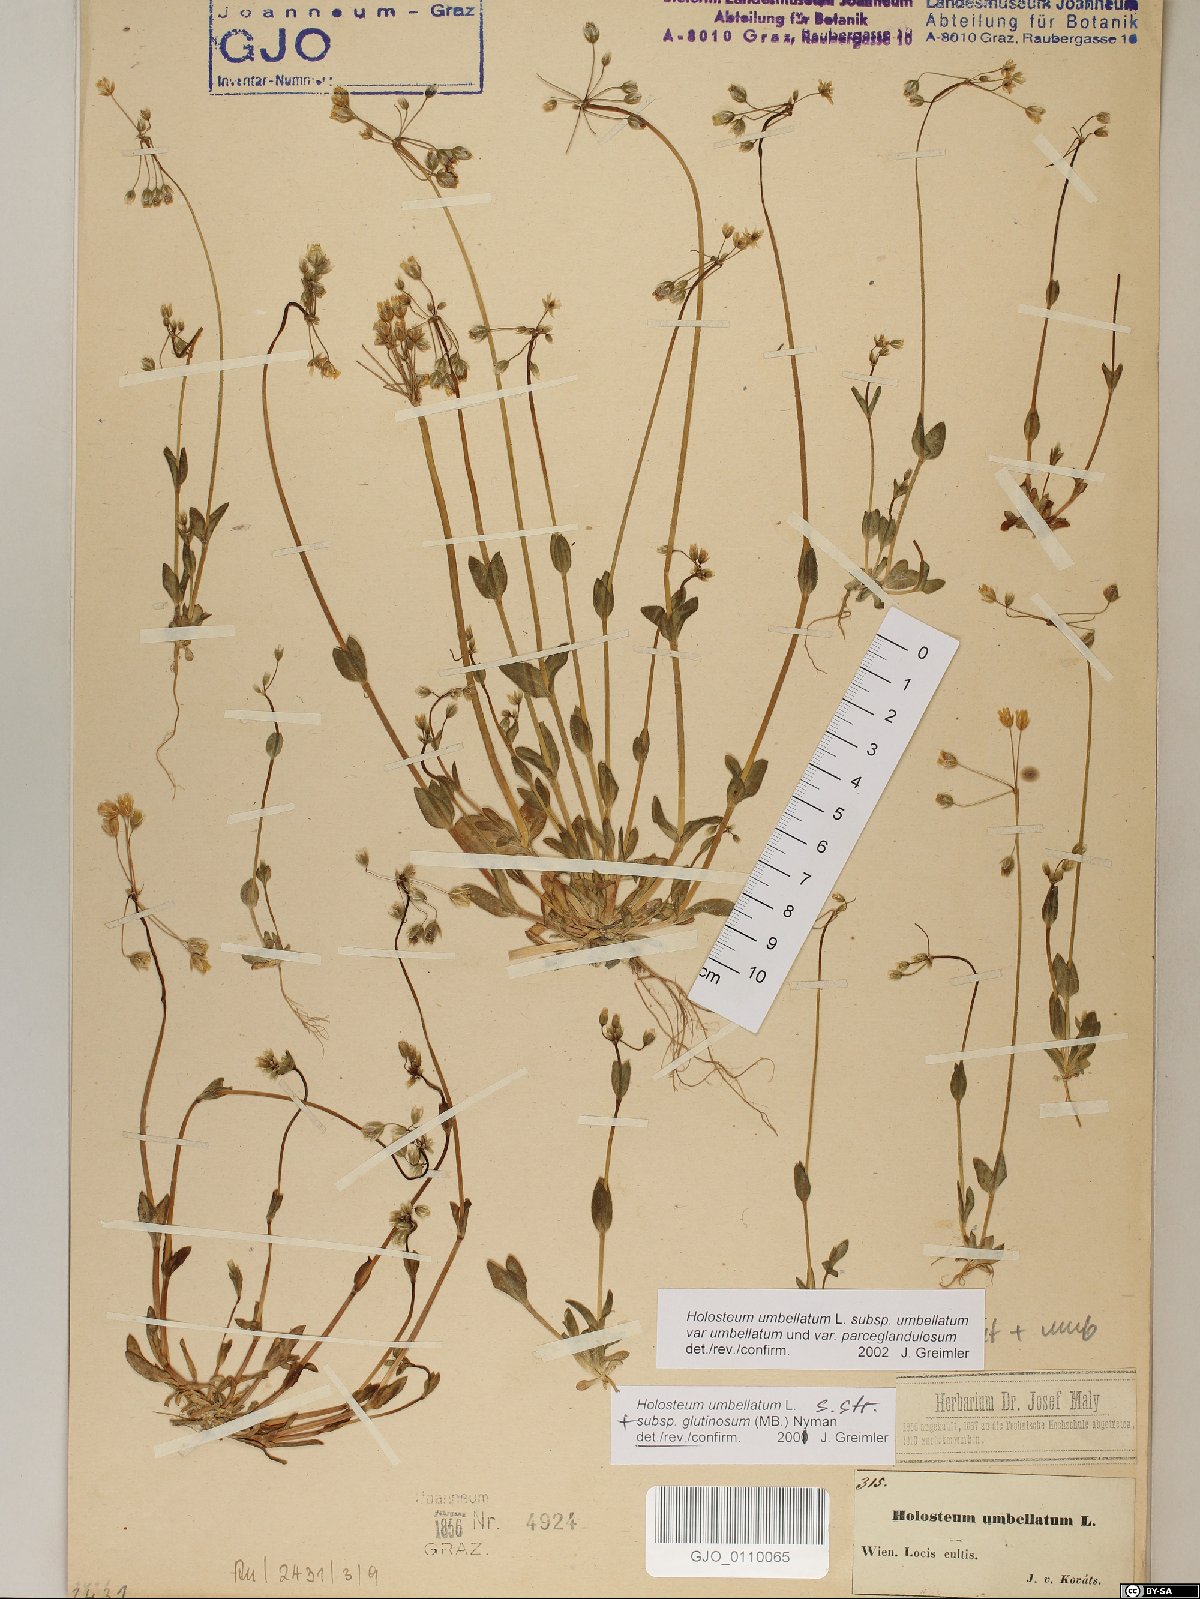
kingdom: Plantae
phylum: Tracheophyta
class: Magnoliopsida
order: Caryophyllales
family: Caryophyllaceae
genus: Holosteum
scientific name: Holosteum umbellatum
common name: Jagged chickweed
